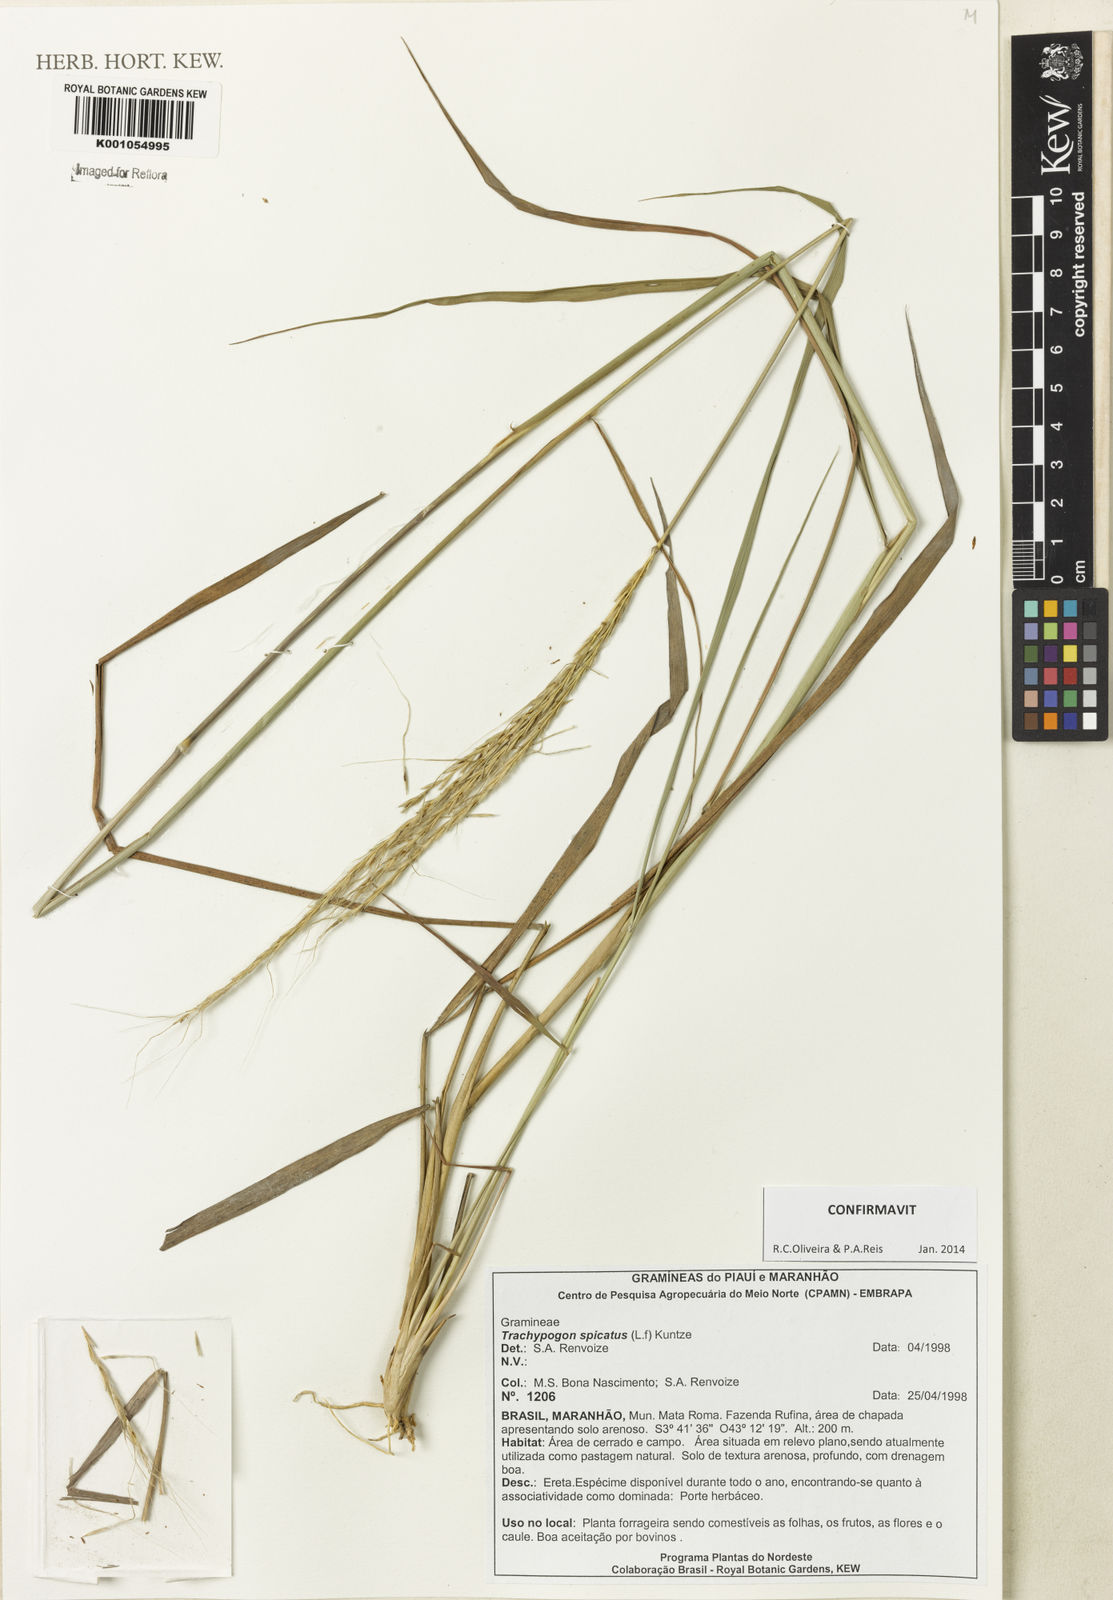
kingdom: Plantae
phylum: Tracheophyta
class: Liliopsida
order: Poales
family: Poaceae
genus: Trachypogon
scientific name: Trachypogon spicatus
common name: Crinkle-awn
